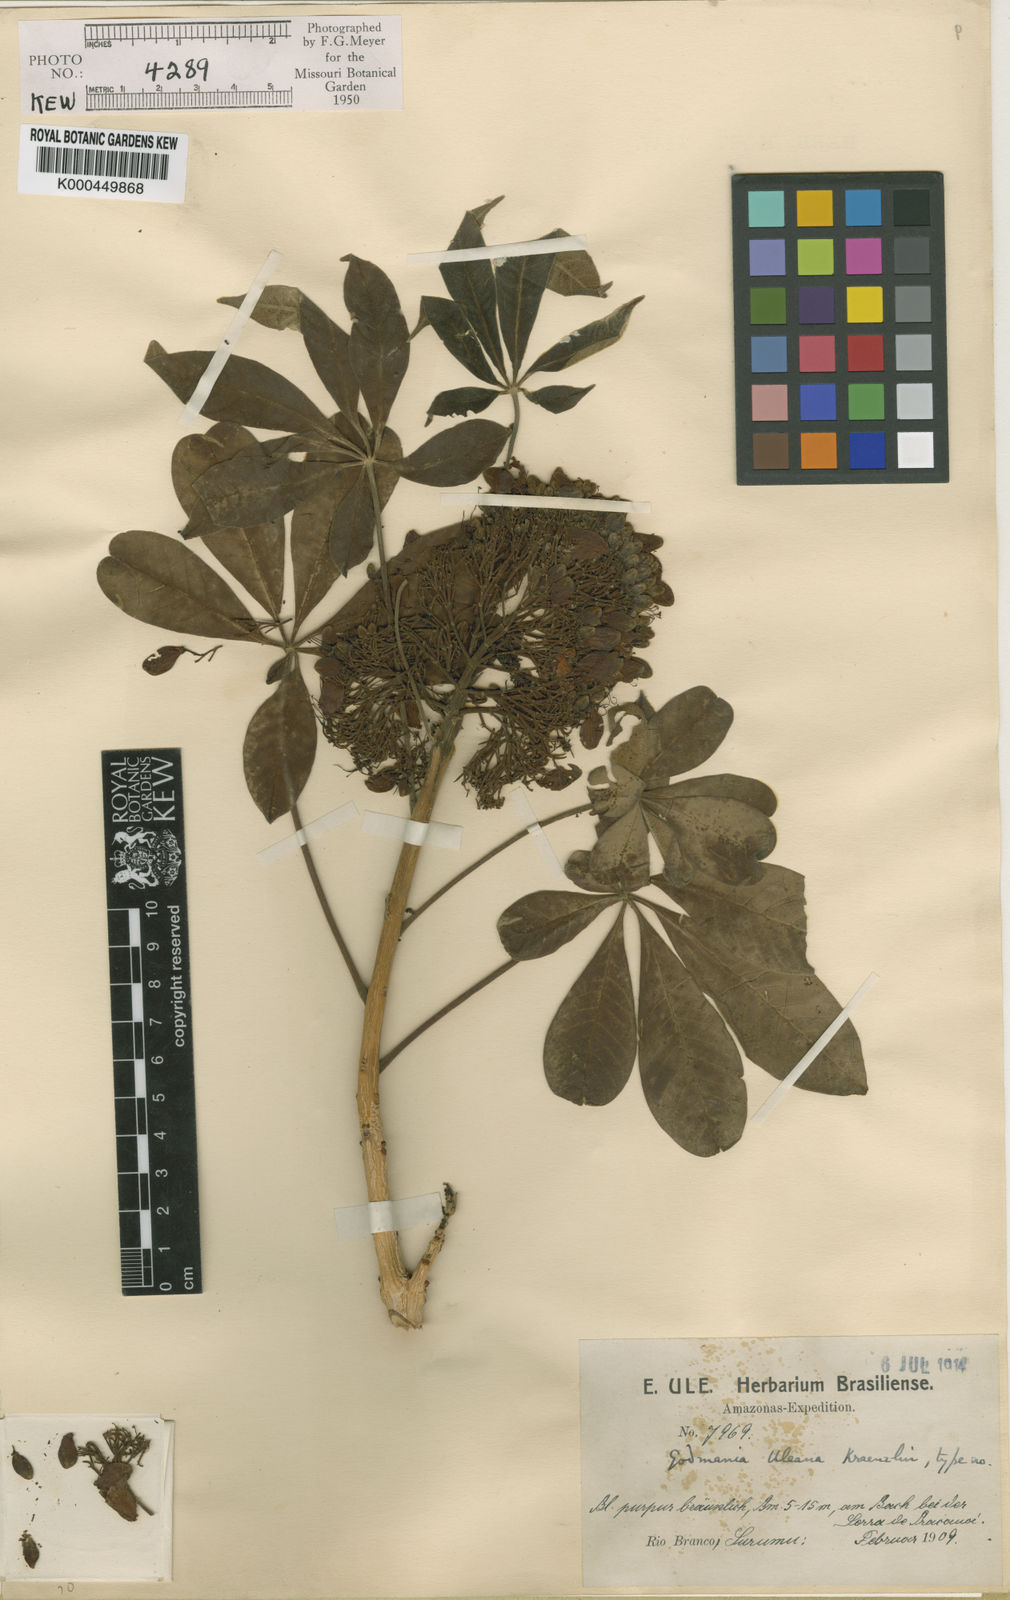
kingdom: Plantae
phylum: Tracheophyta
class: Magnoliopsida
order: Lamiales
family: Bignoniaceae
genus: Godmania
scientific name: Godmania aesculifolia
